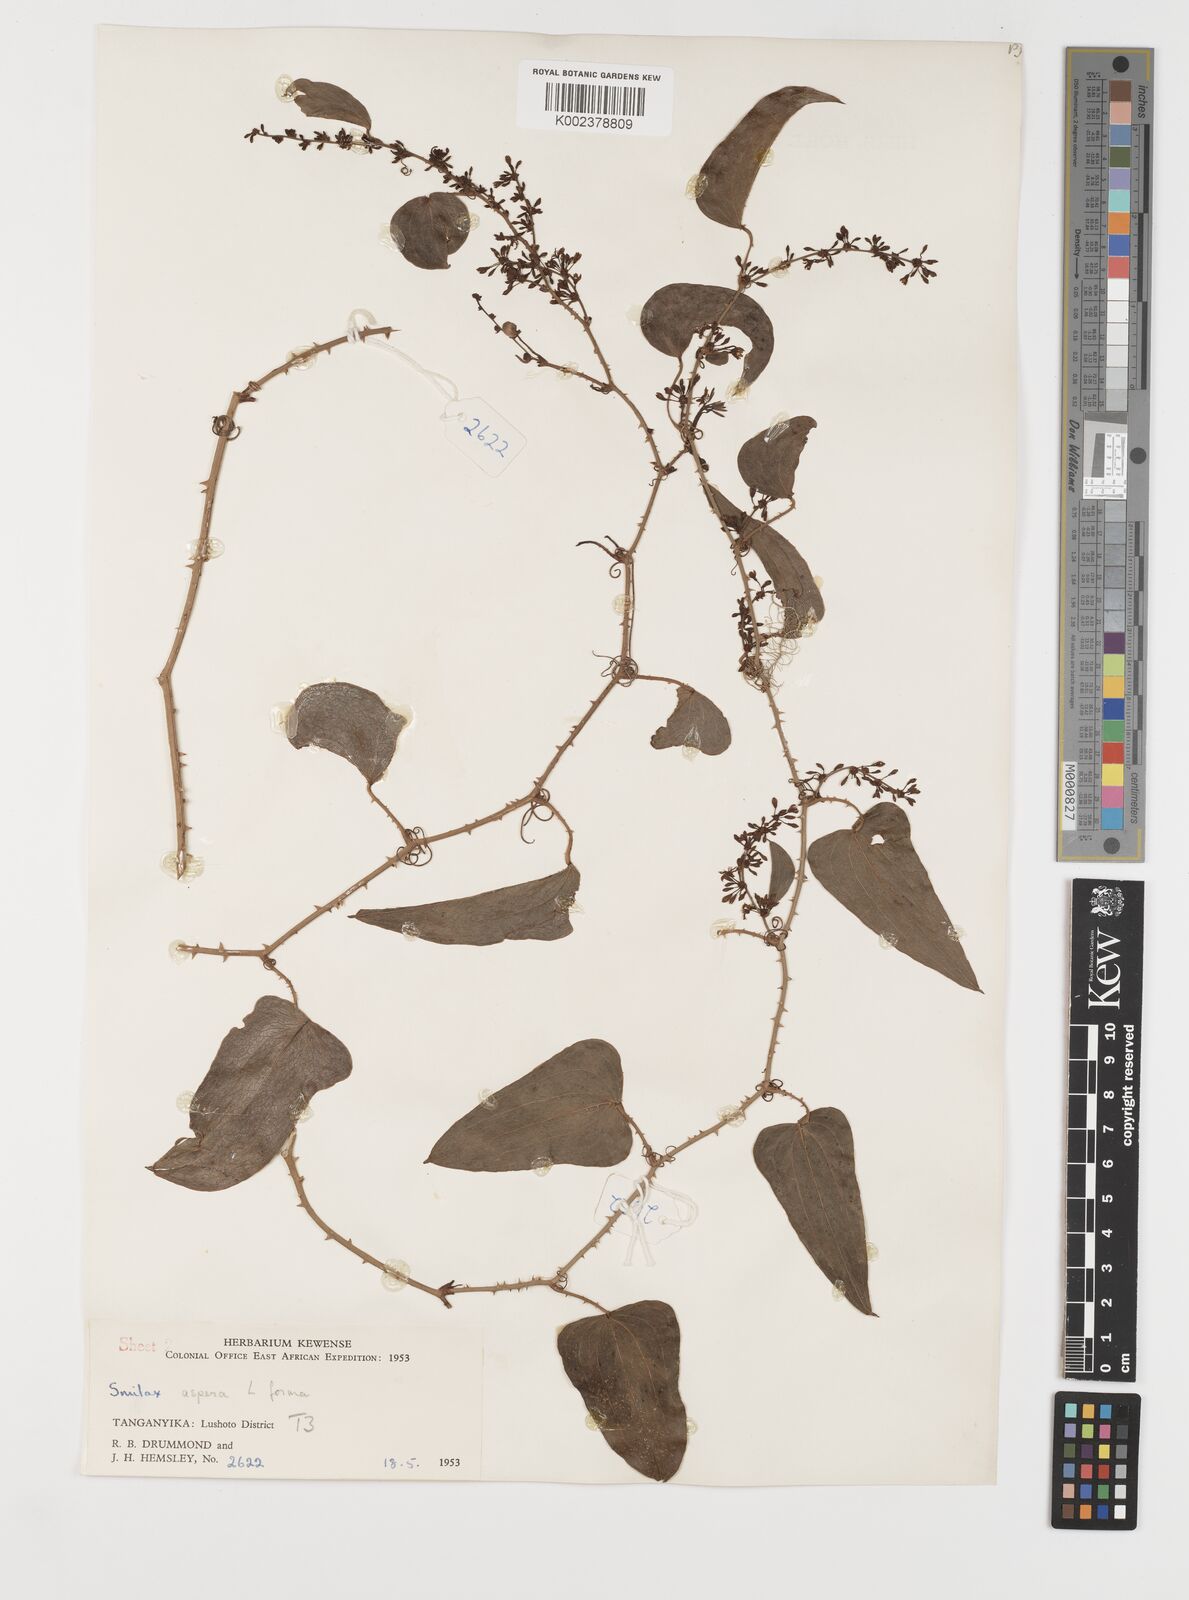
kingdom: Plantae
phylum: Tracheophyta
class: Liliopsida
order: Liliales
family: Smilacaceae
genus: Smilax
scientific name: Smilax aspera
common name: Common smilax
